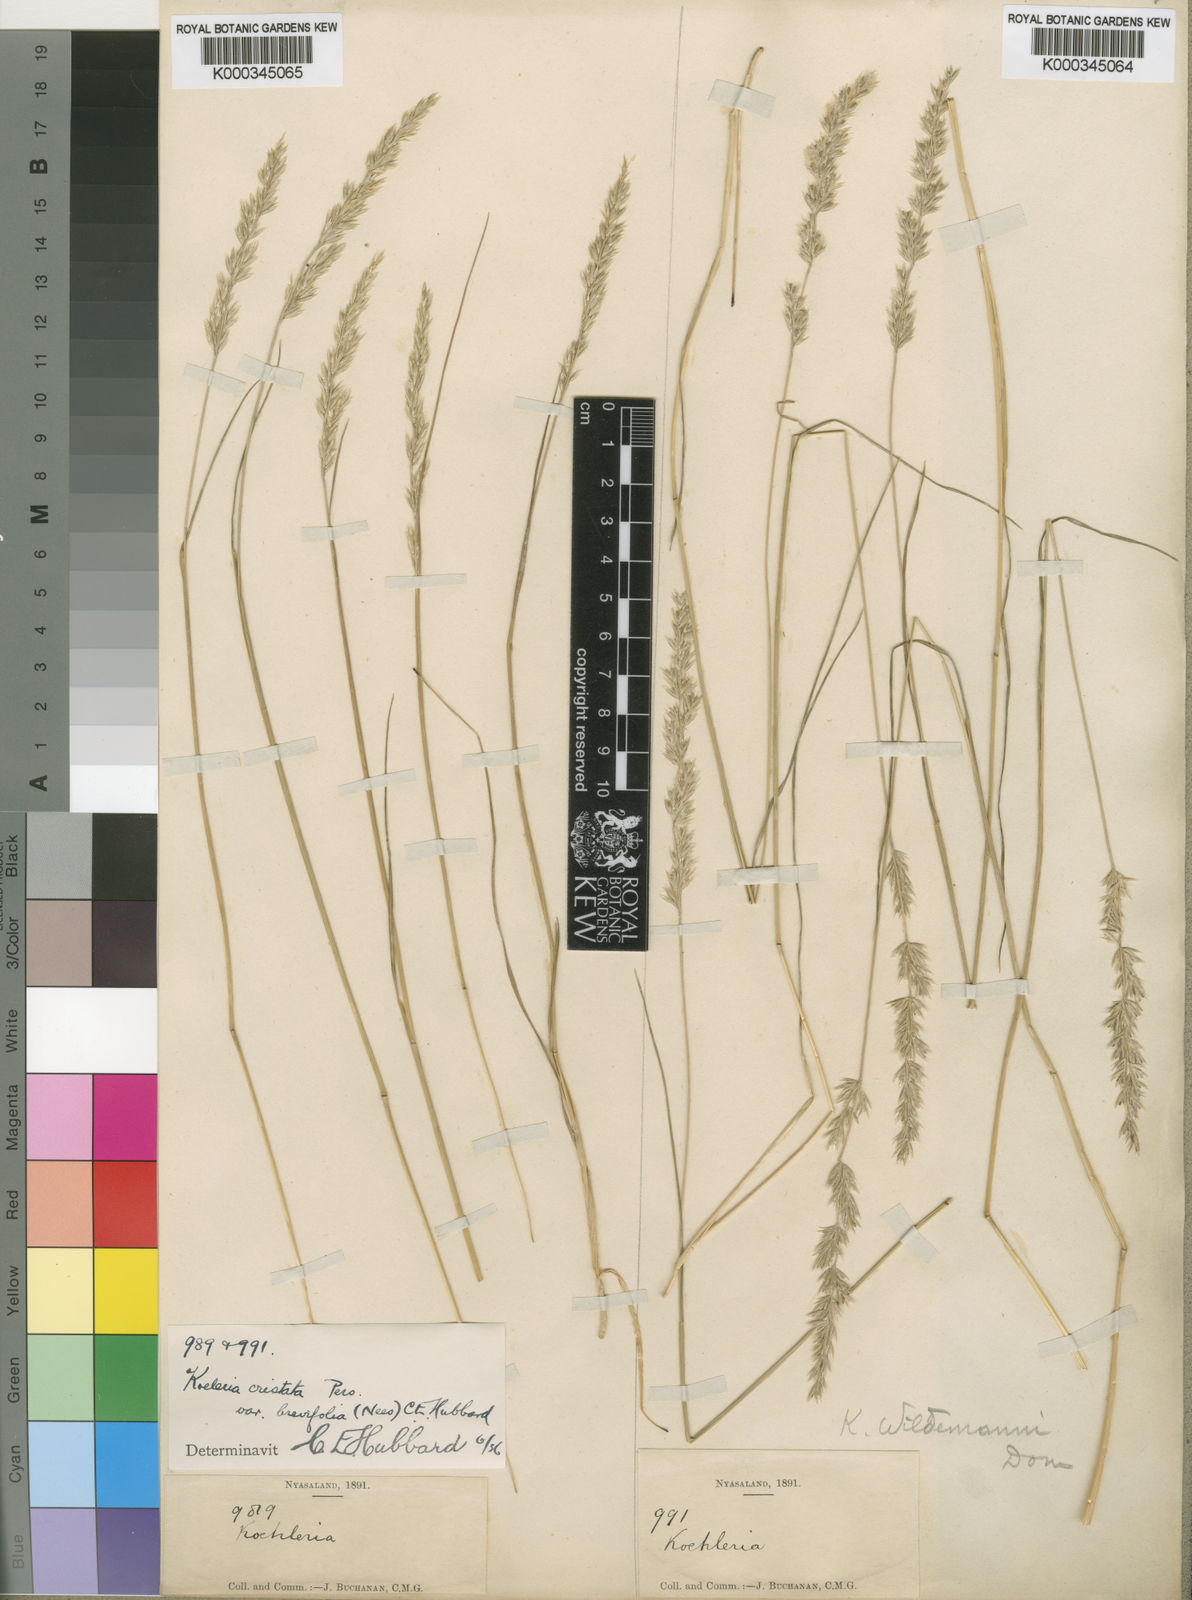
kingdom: Plantae
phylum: Tracheophyta
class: Liliopsida
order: Poales
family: Poaceae
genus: Koeleria
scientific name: Koeleria capensis
